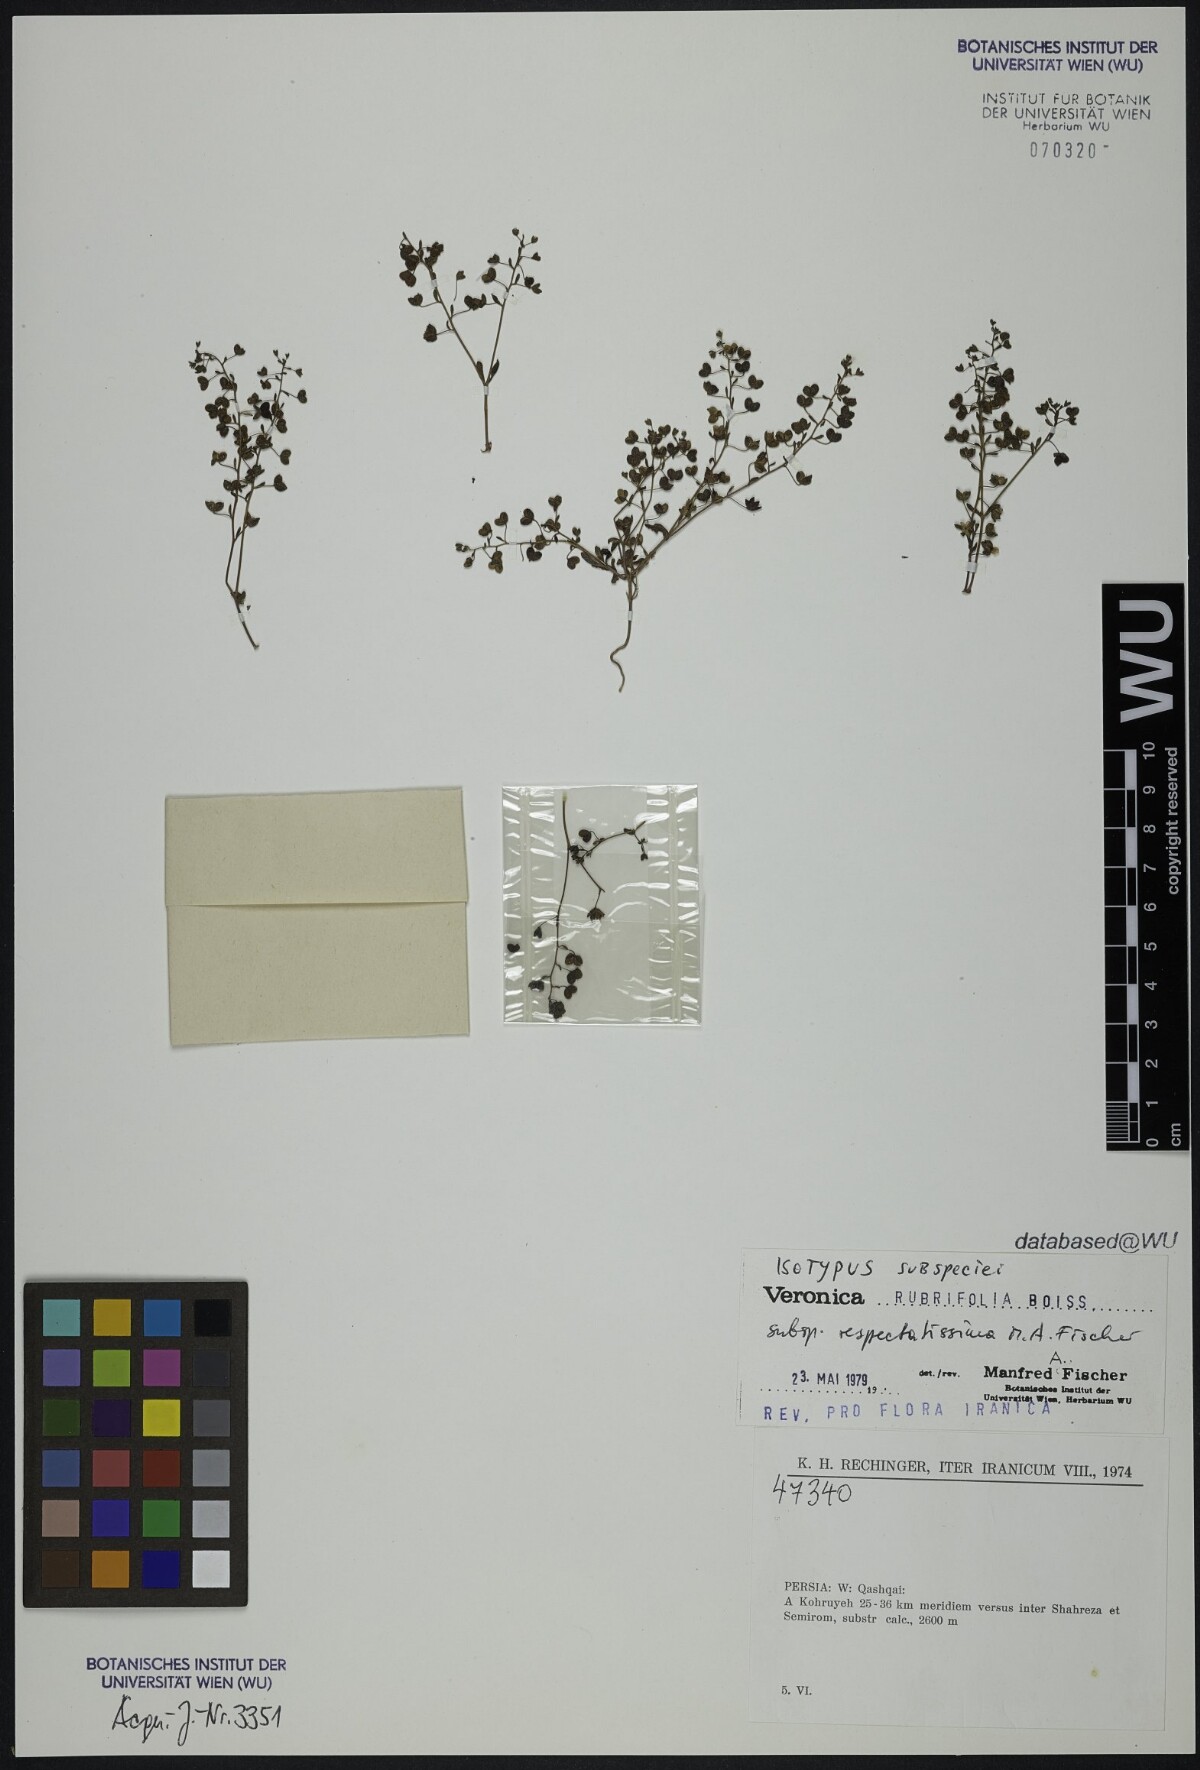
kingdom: Plantae
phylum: Tracheophyta
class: Magnoliopsida
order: Lamiales
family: Plantaginaceae
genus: Veronica
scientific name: Veronica rubrifolia
